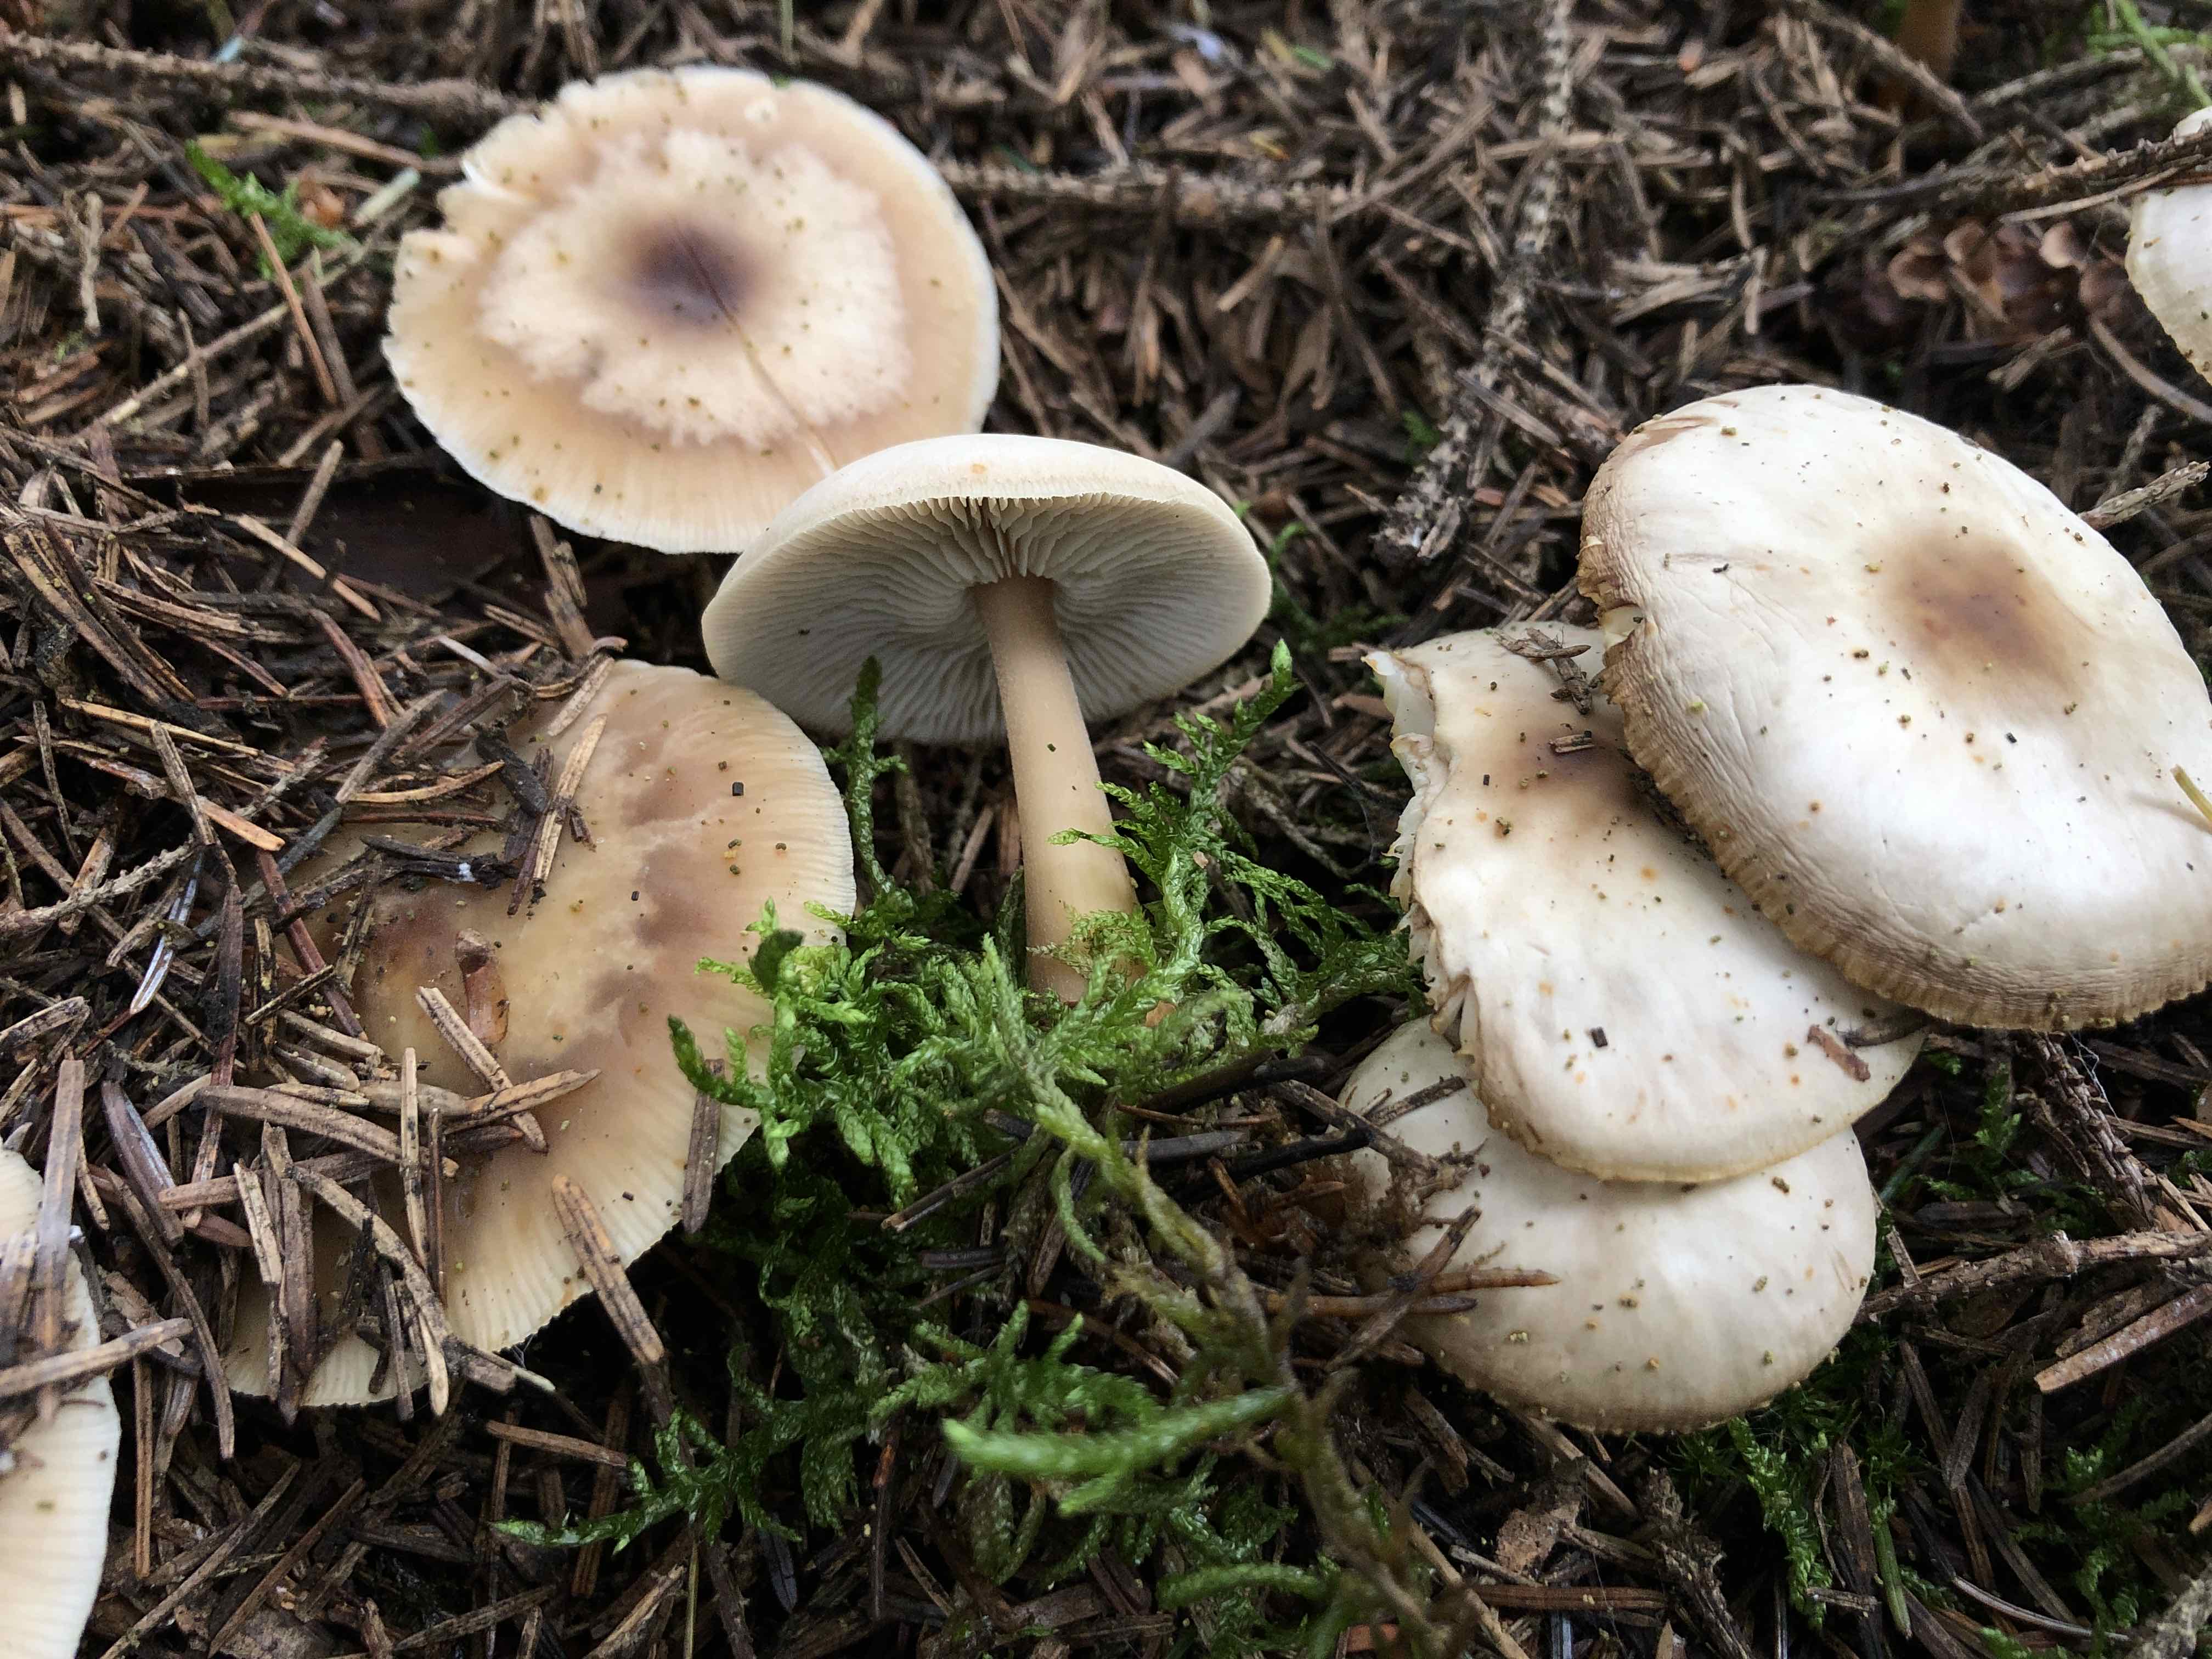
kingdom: Fungi
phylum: Basidiomycota
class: Agaricomycetes
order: Agaricales
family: Omphalotaceae
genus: Rhodocollybia
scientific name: Rhodocollybia asema
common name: horngrå fladhat
